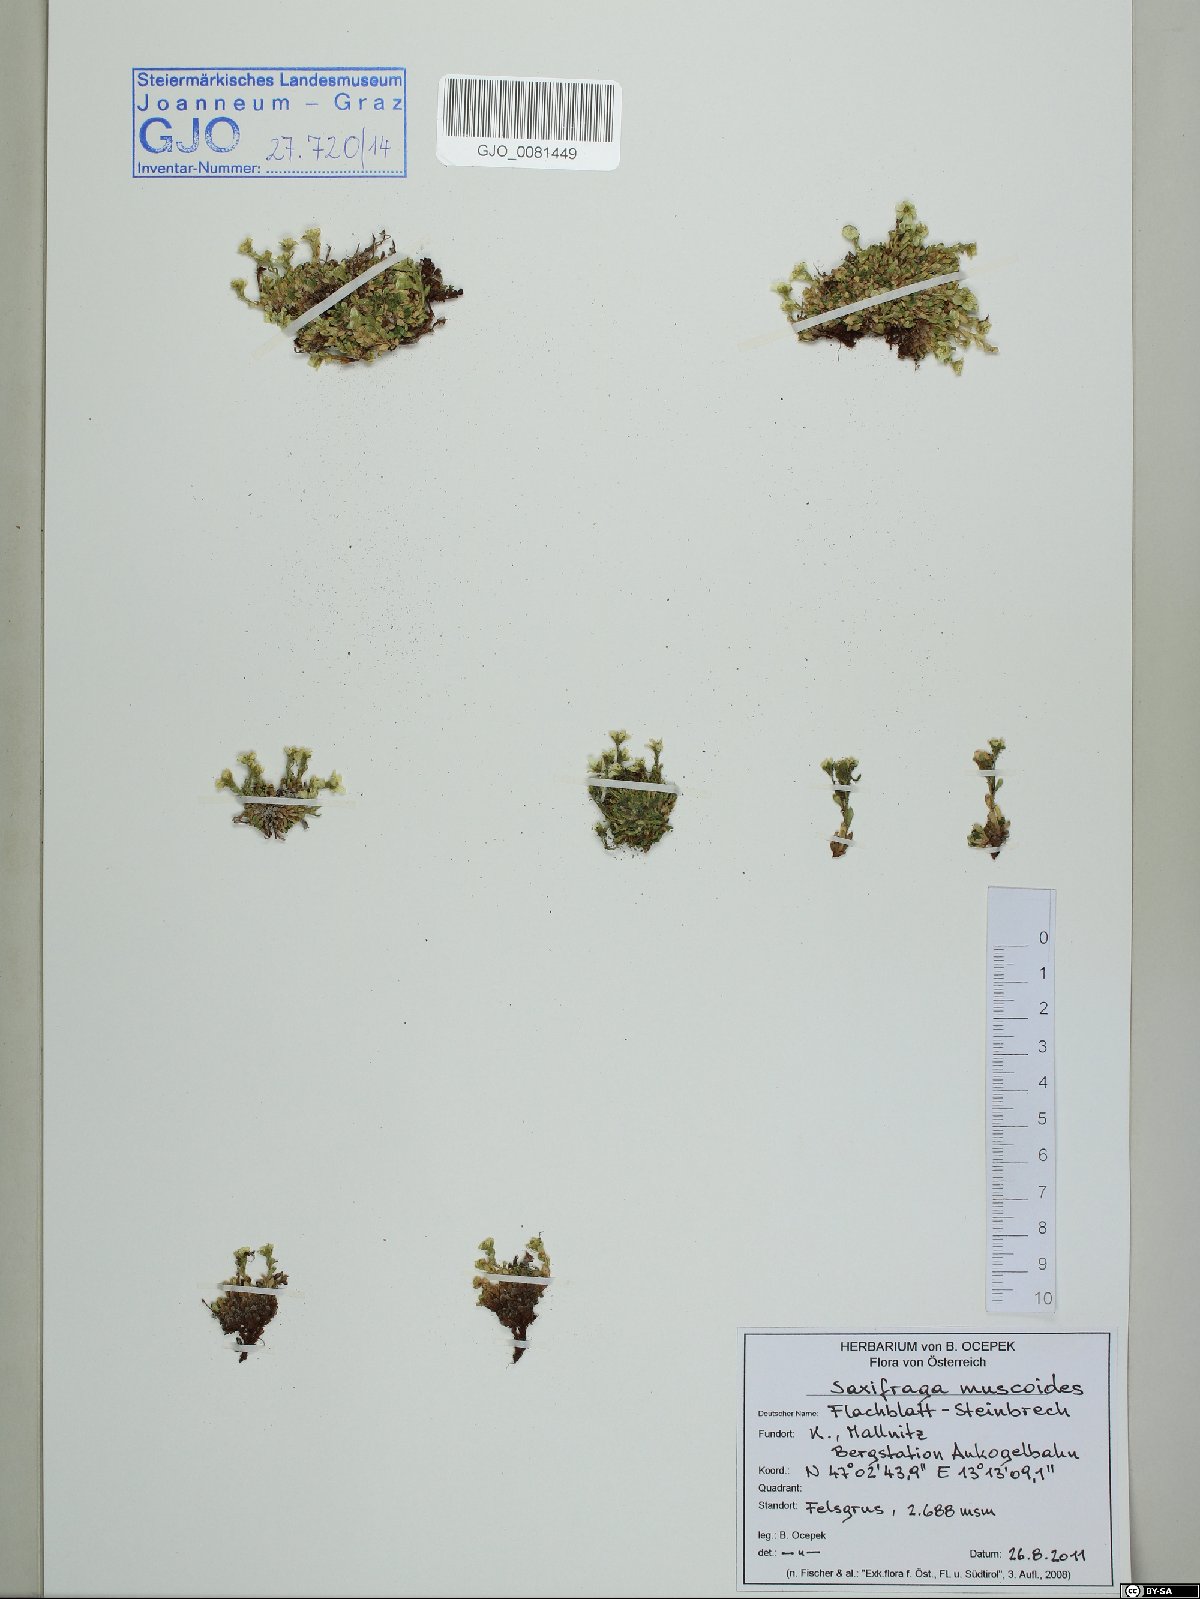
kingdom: Plantae
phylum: Tracheophyta
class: Magnoliopsida
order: Saxifragales
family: Saxifragaceae
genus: Saxifraga
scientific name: Saxifraga muscoides
